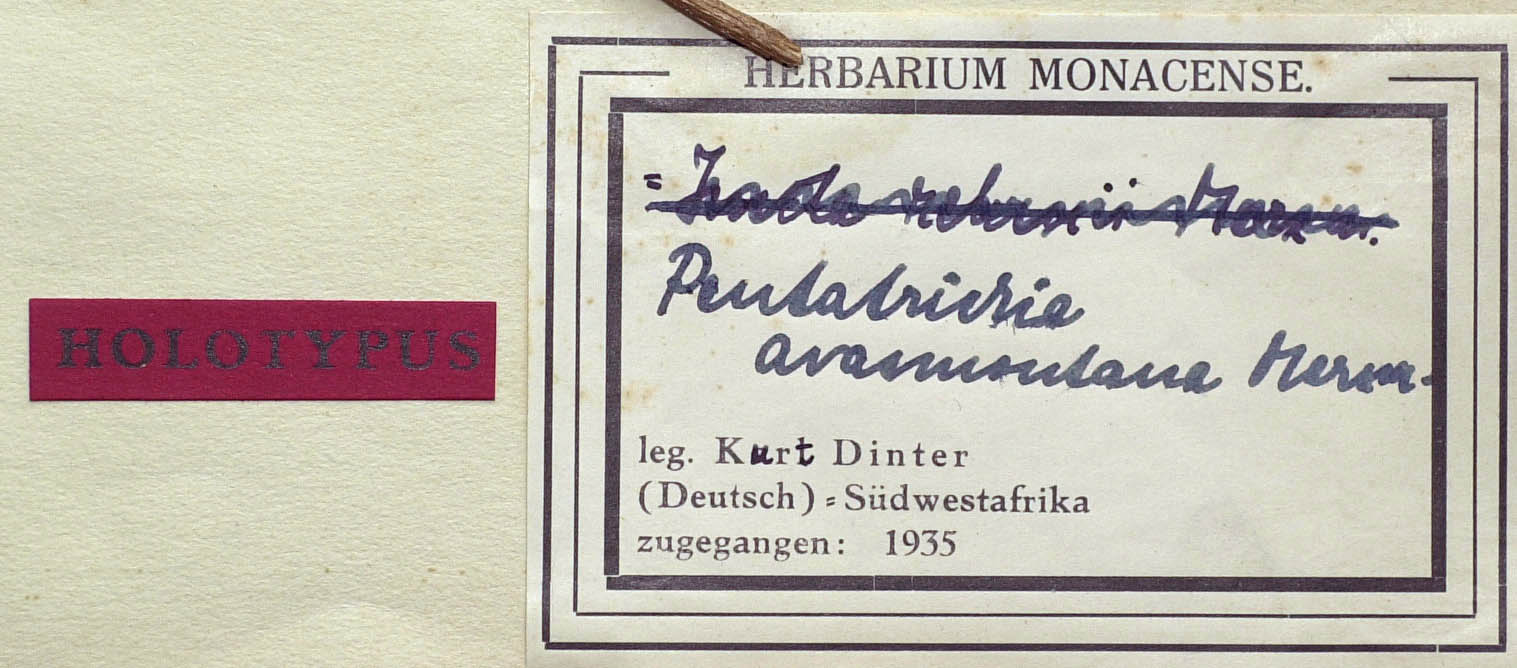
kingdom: Plantae
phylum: Tracheophyta
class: Magnoliopsida
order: Asterales
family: Asteraceae
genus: Pentatrichia
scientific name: Pentatrichia rehmii
